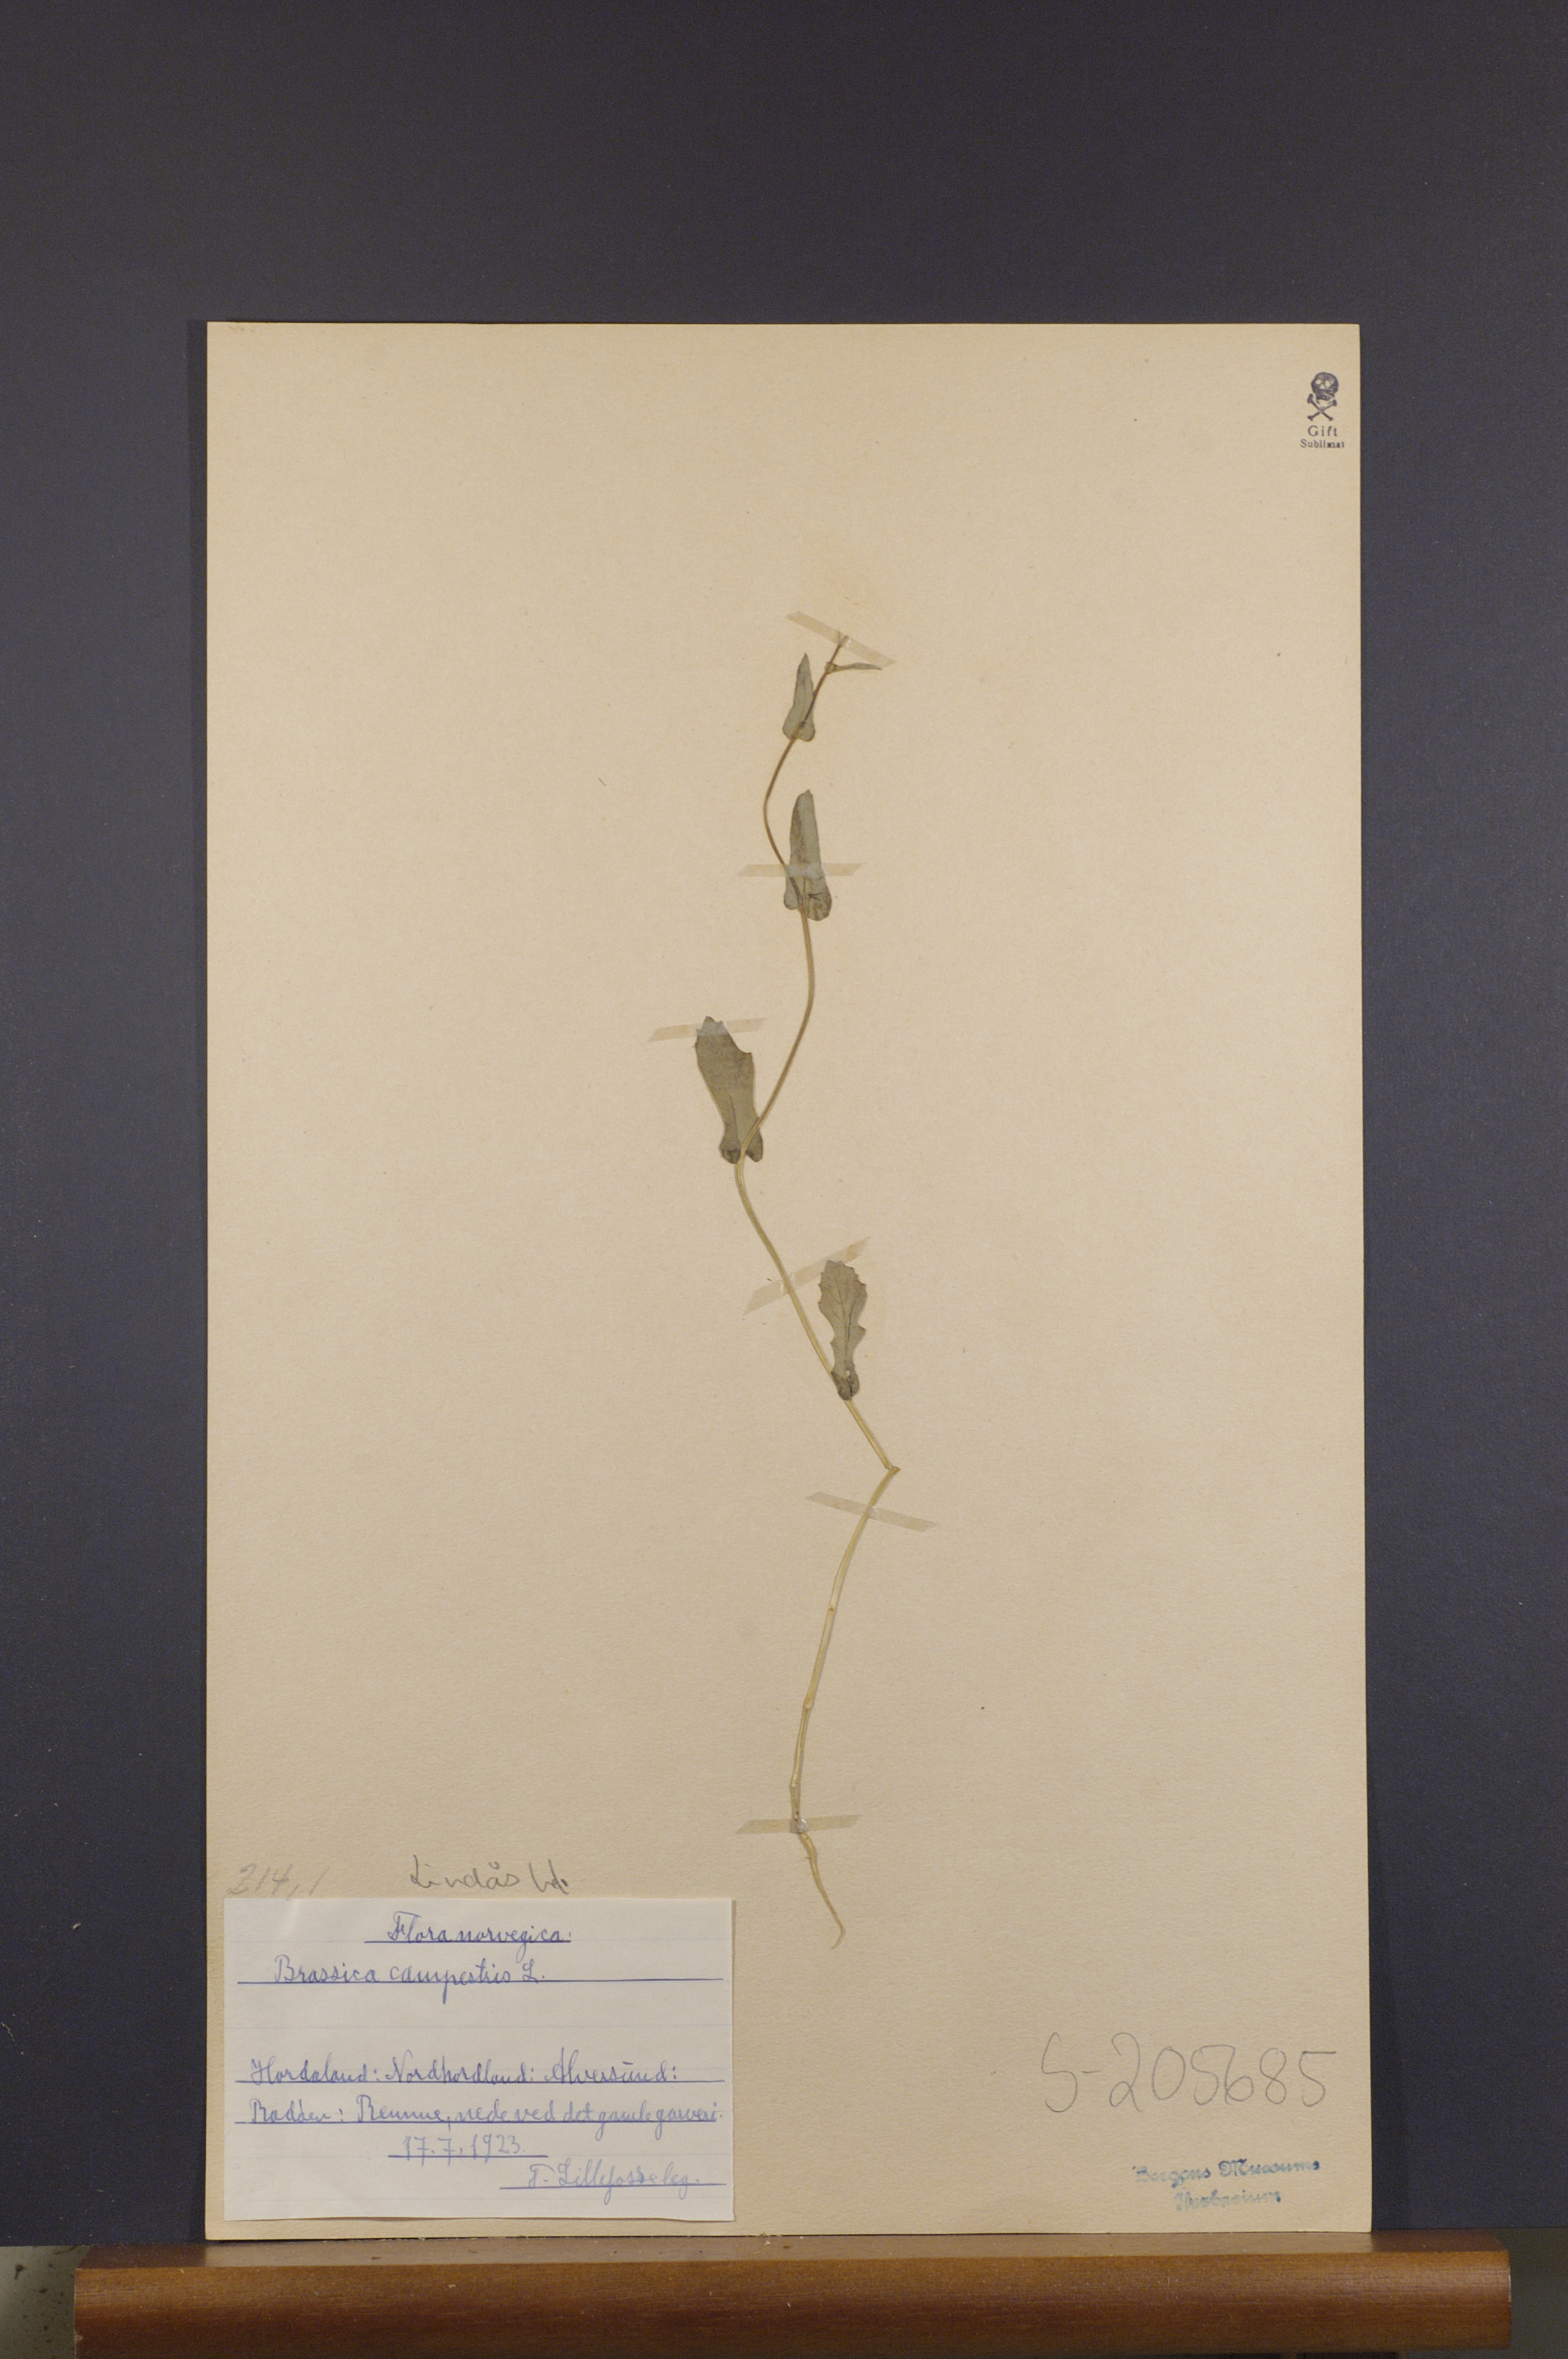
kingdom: Plantae
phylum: Tracheophyta
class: Magnoliopsida
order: Brassicales
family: Brassicaceae
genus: Brassica
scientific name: Brassica rapa
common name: Field mustard
